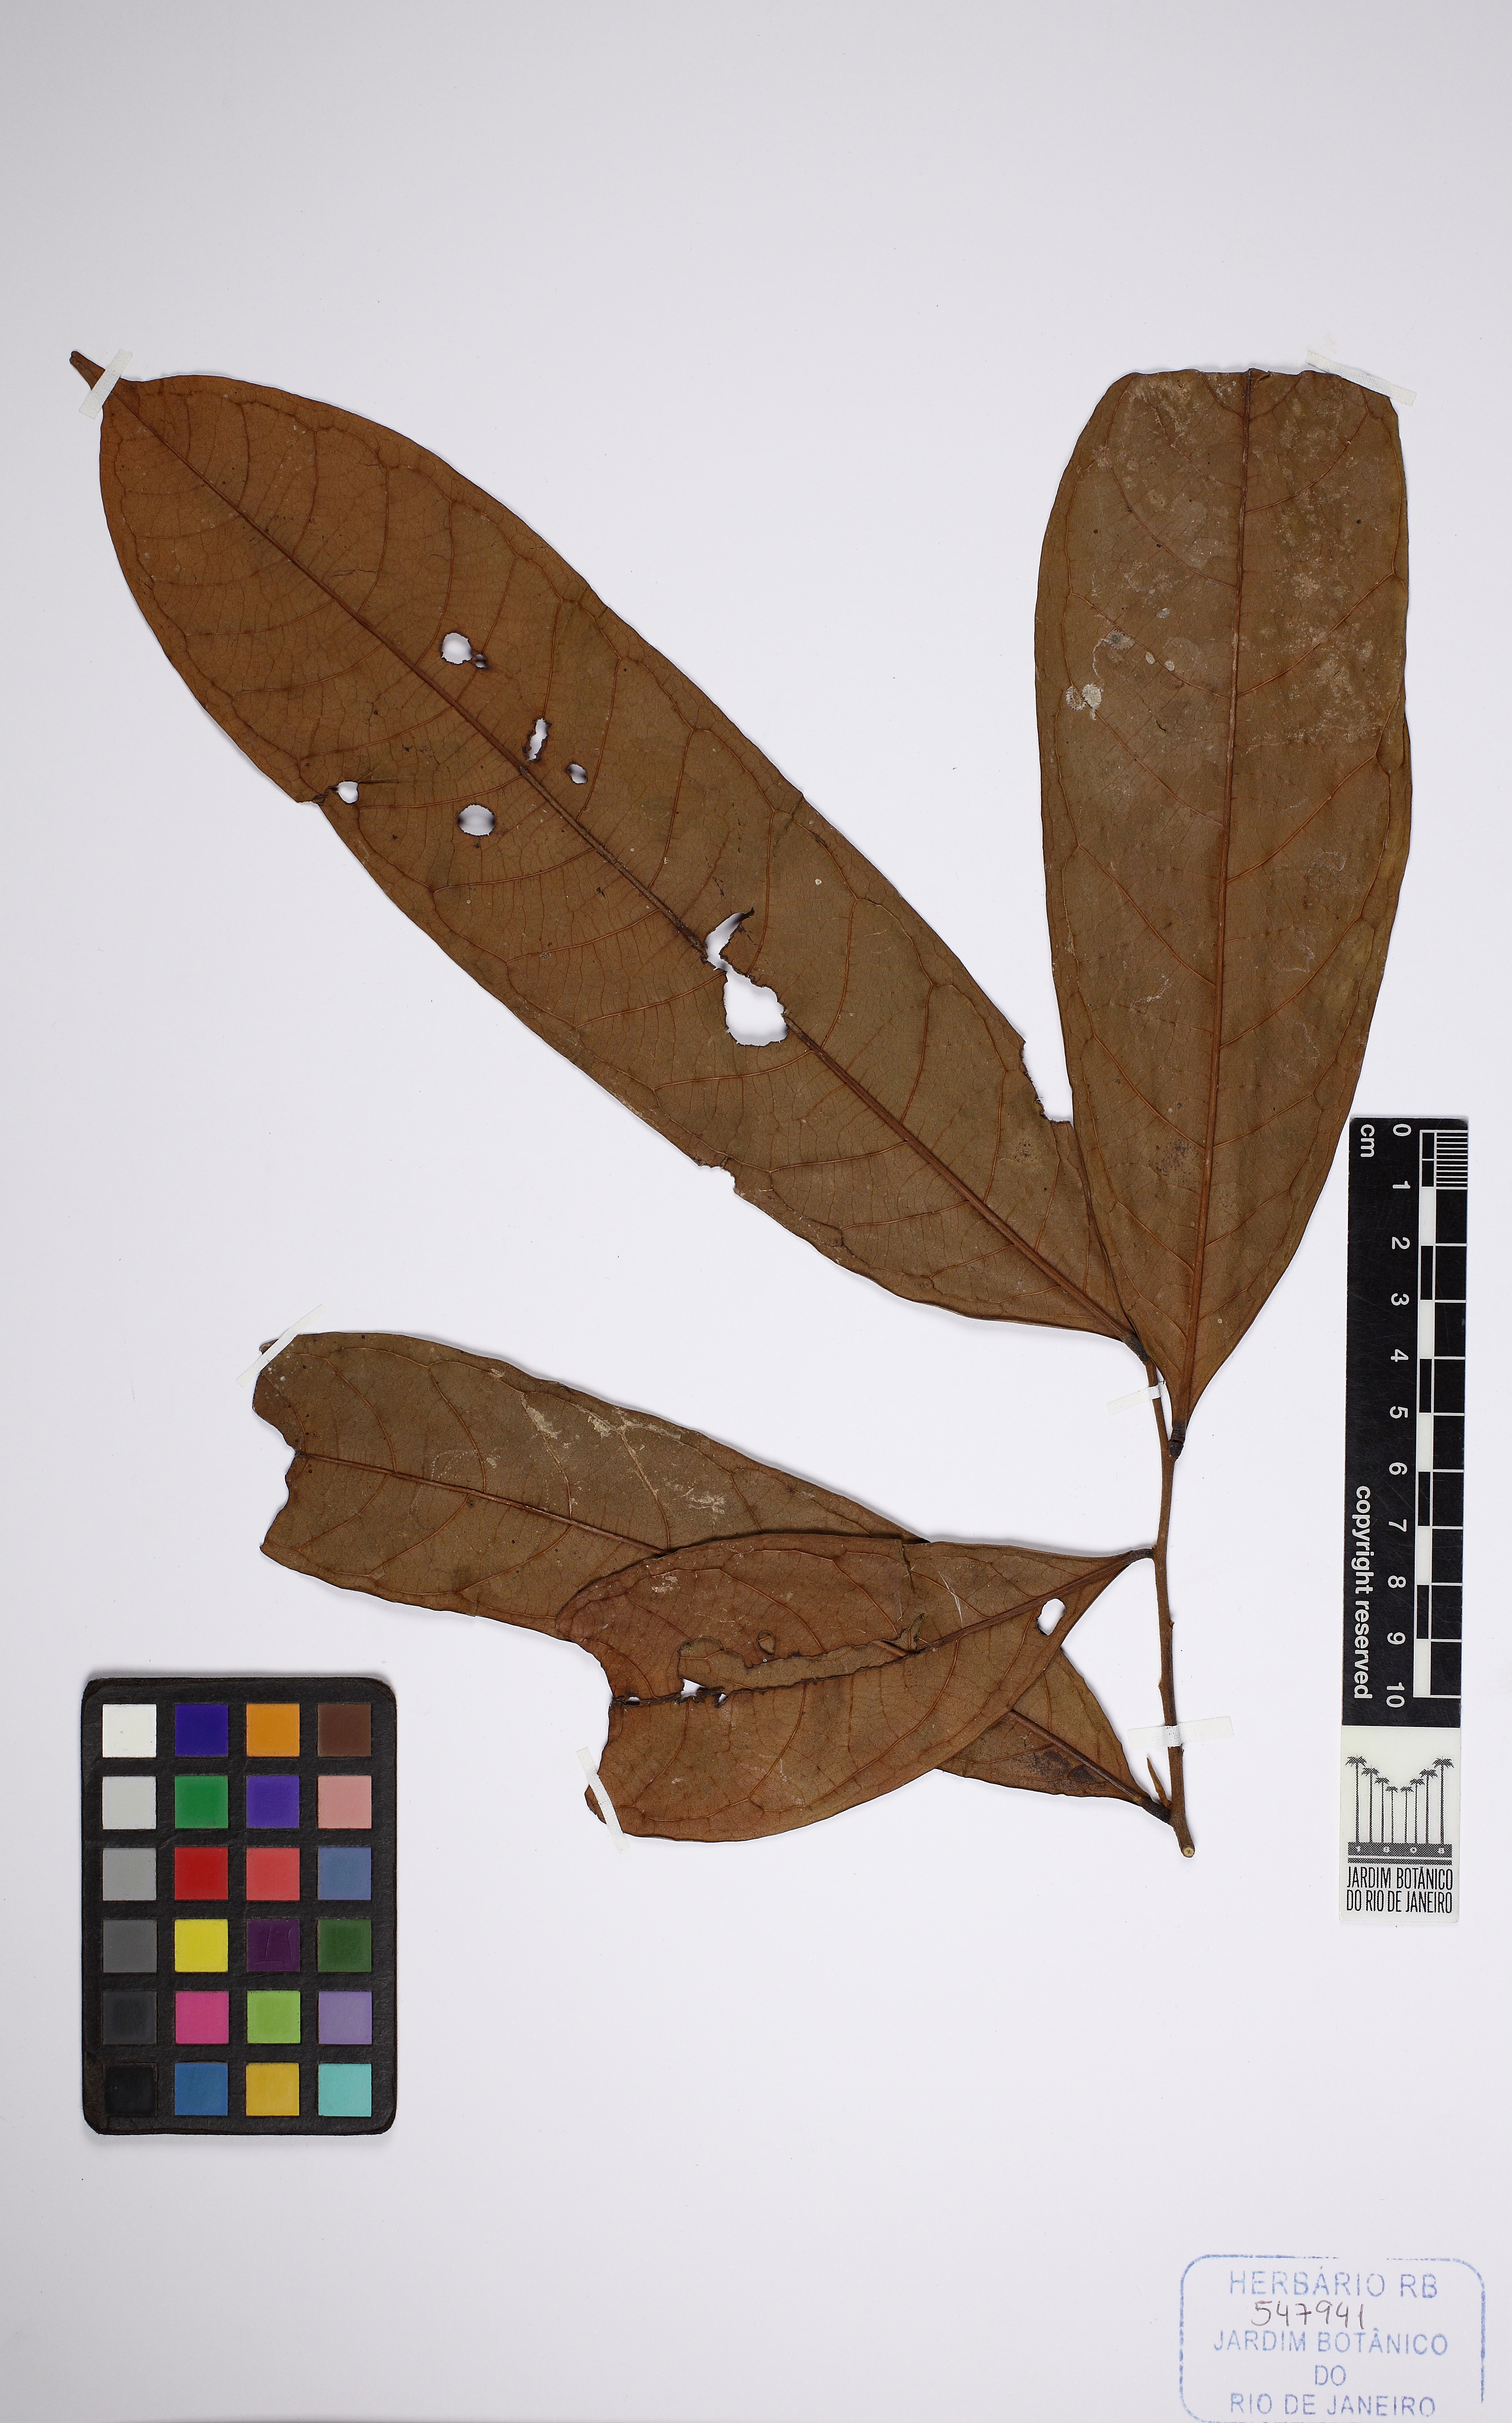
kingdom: Plantae
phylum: Tracheophyta
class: Magnoliopsida
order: Magnoliales
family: Annonaceae
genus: Fusaea
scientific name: Fusaea longifolia
